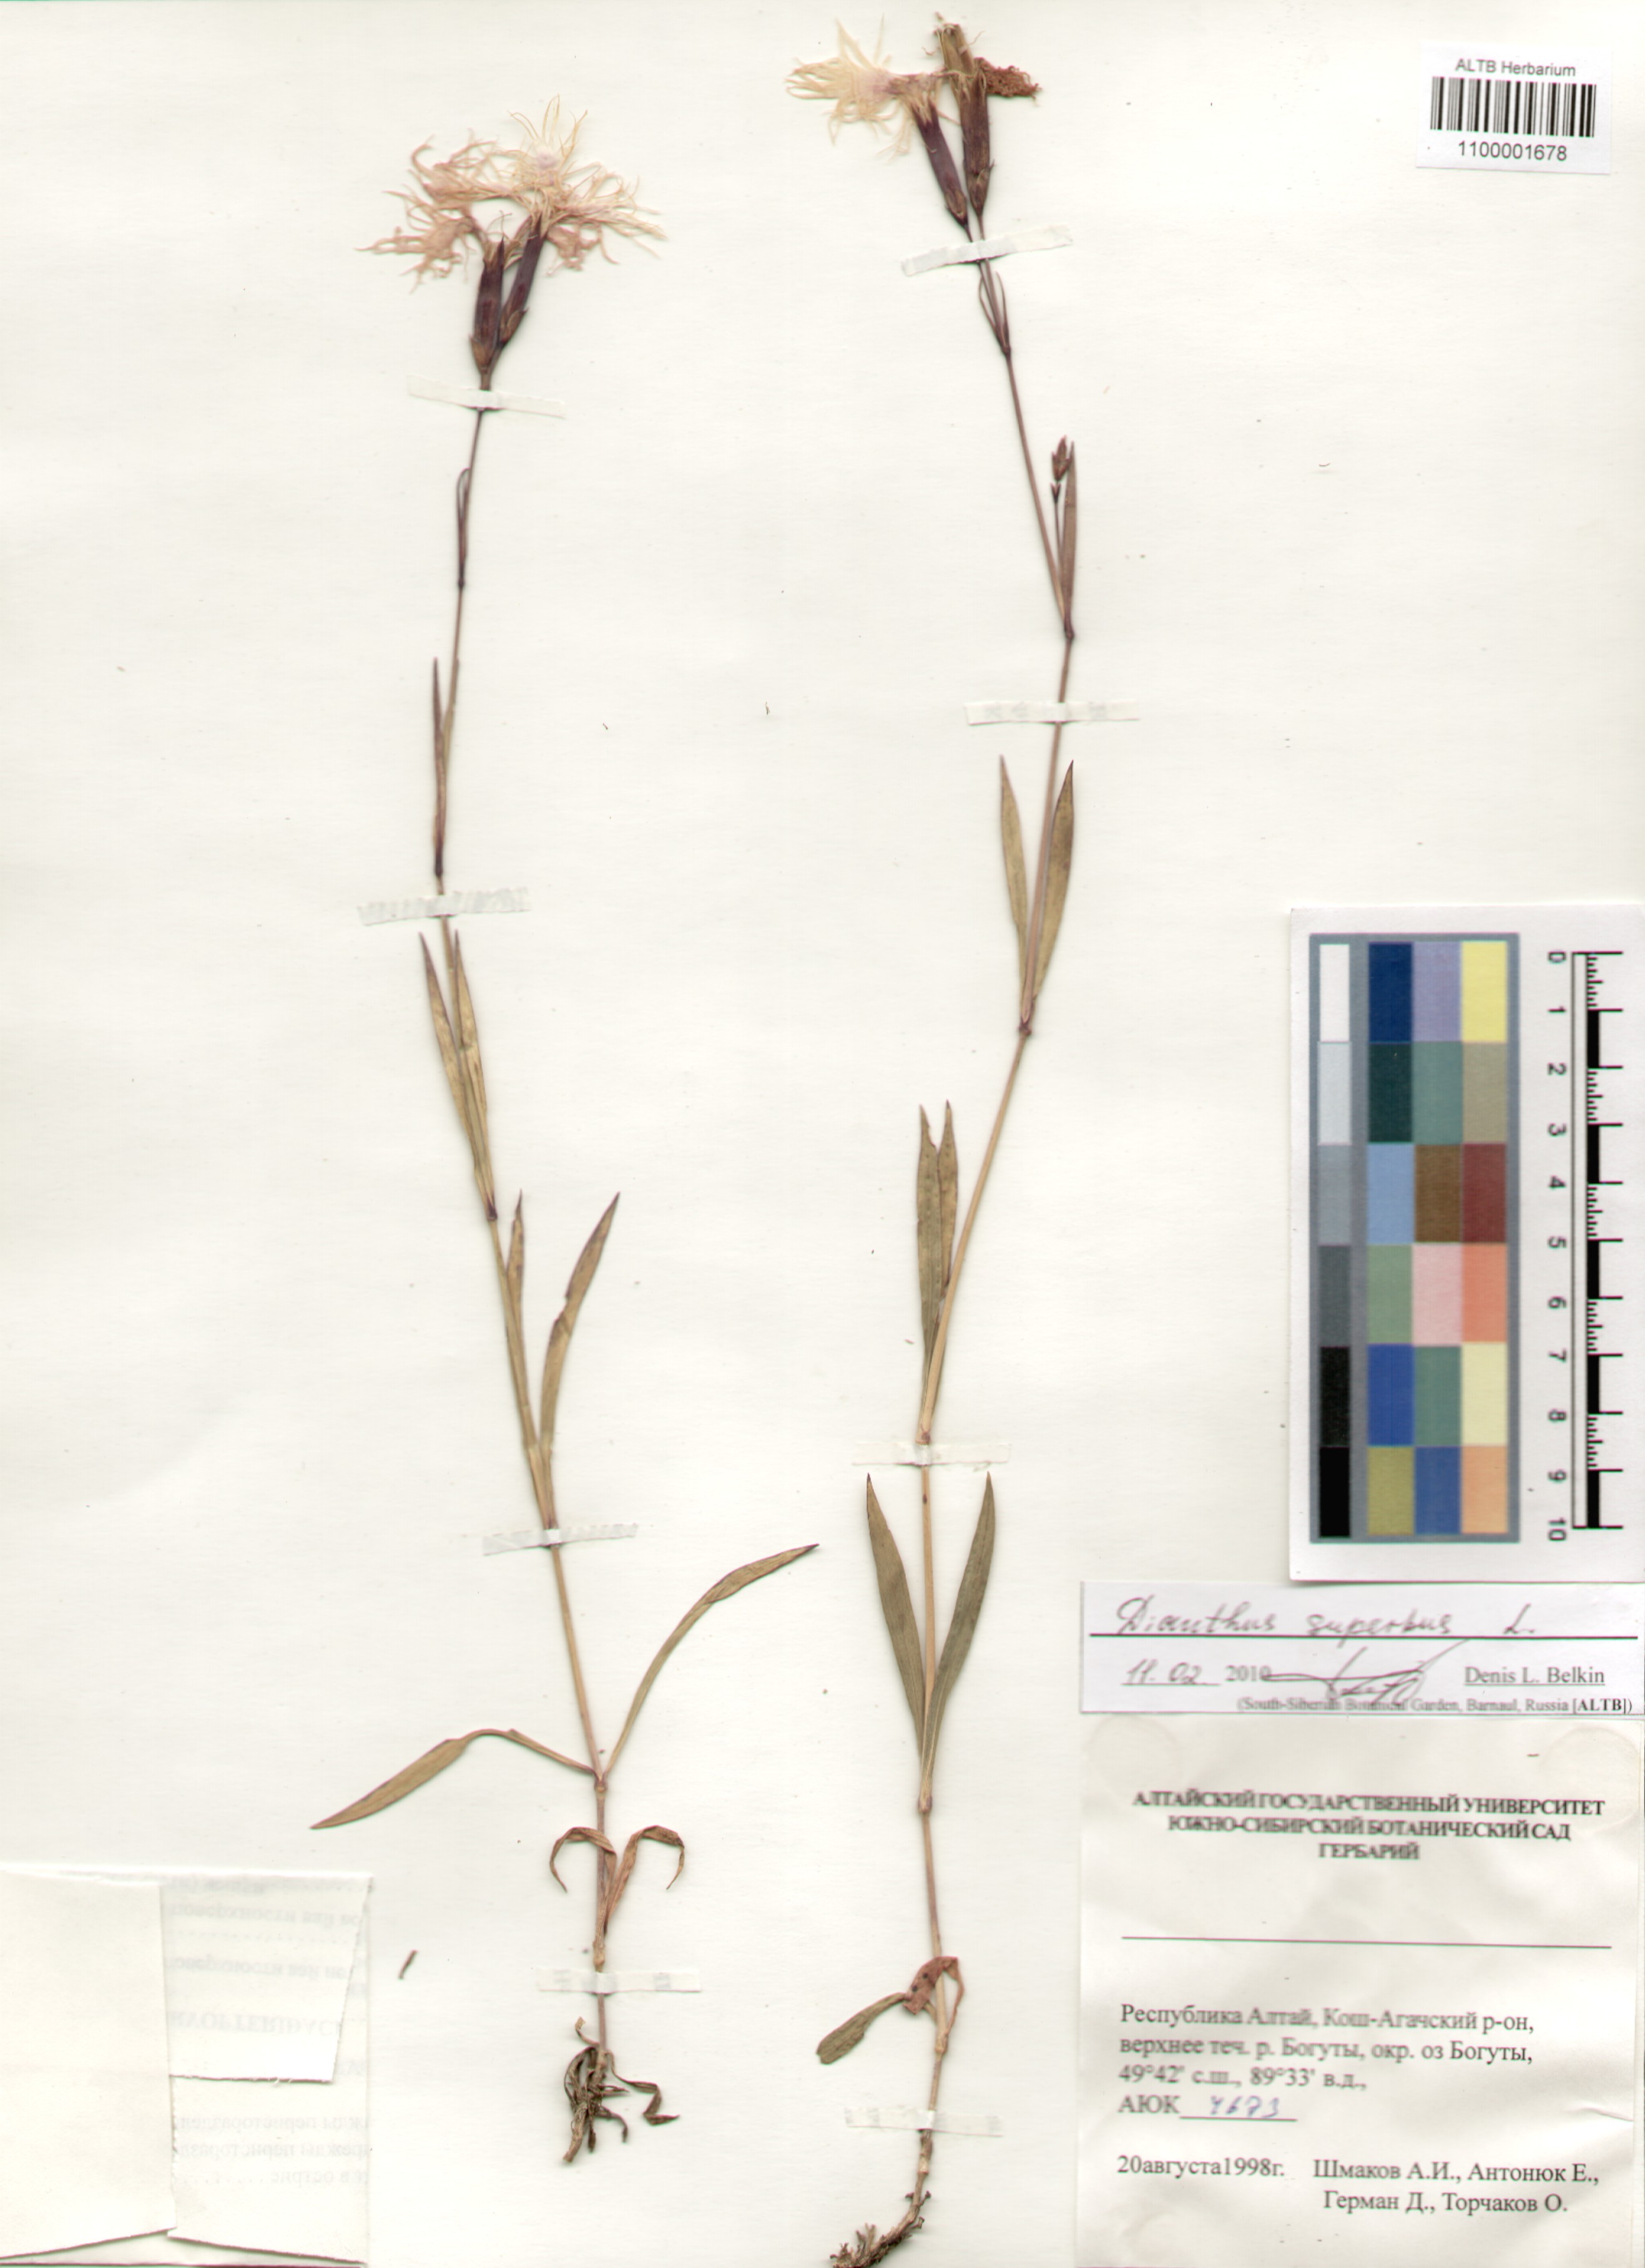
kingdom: Plantae
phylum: Tracheophyta
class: Magnoliopsida
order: Caryophyllales
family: Caryophyllaceae
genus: Dianthus
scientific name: Dianthus superbus
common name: Fringed pink
